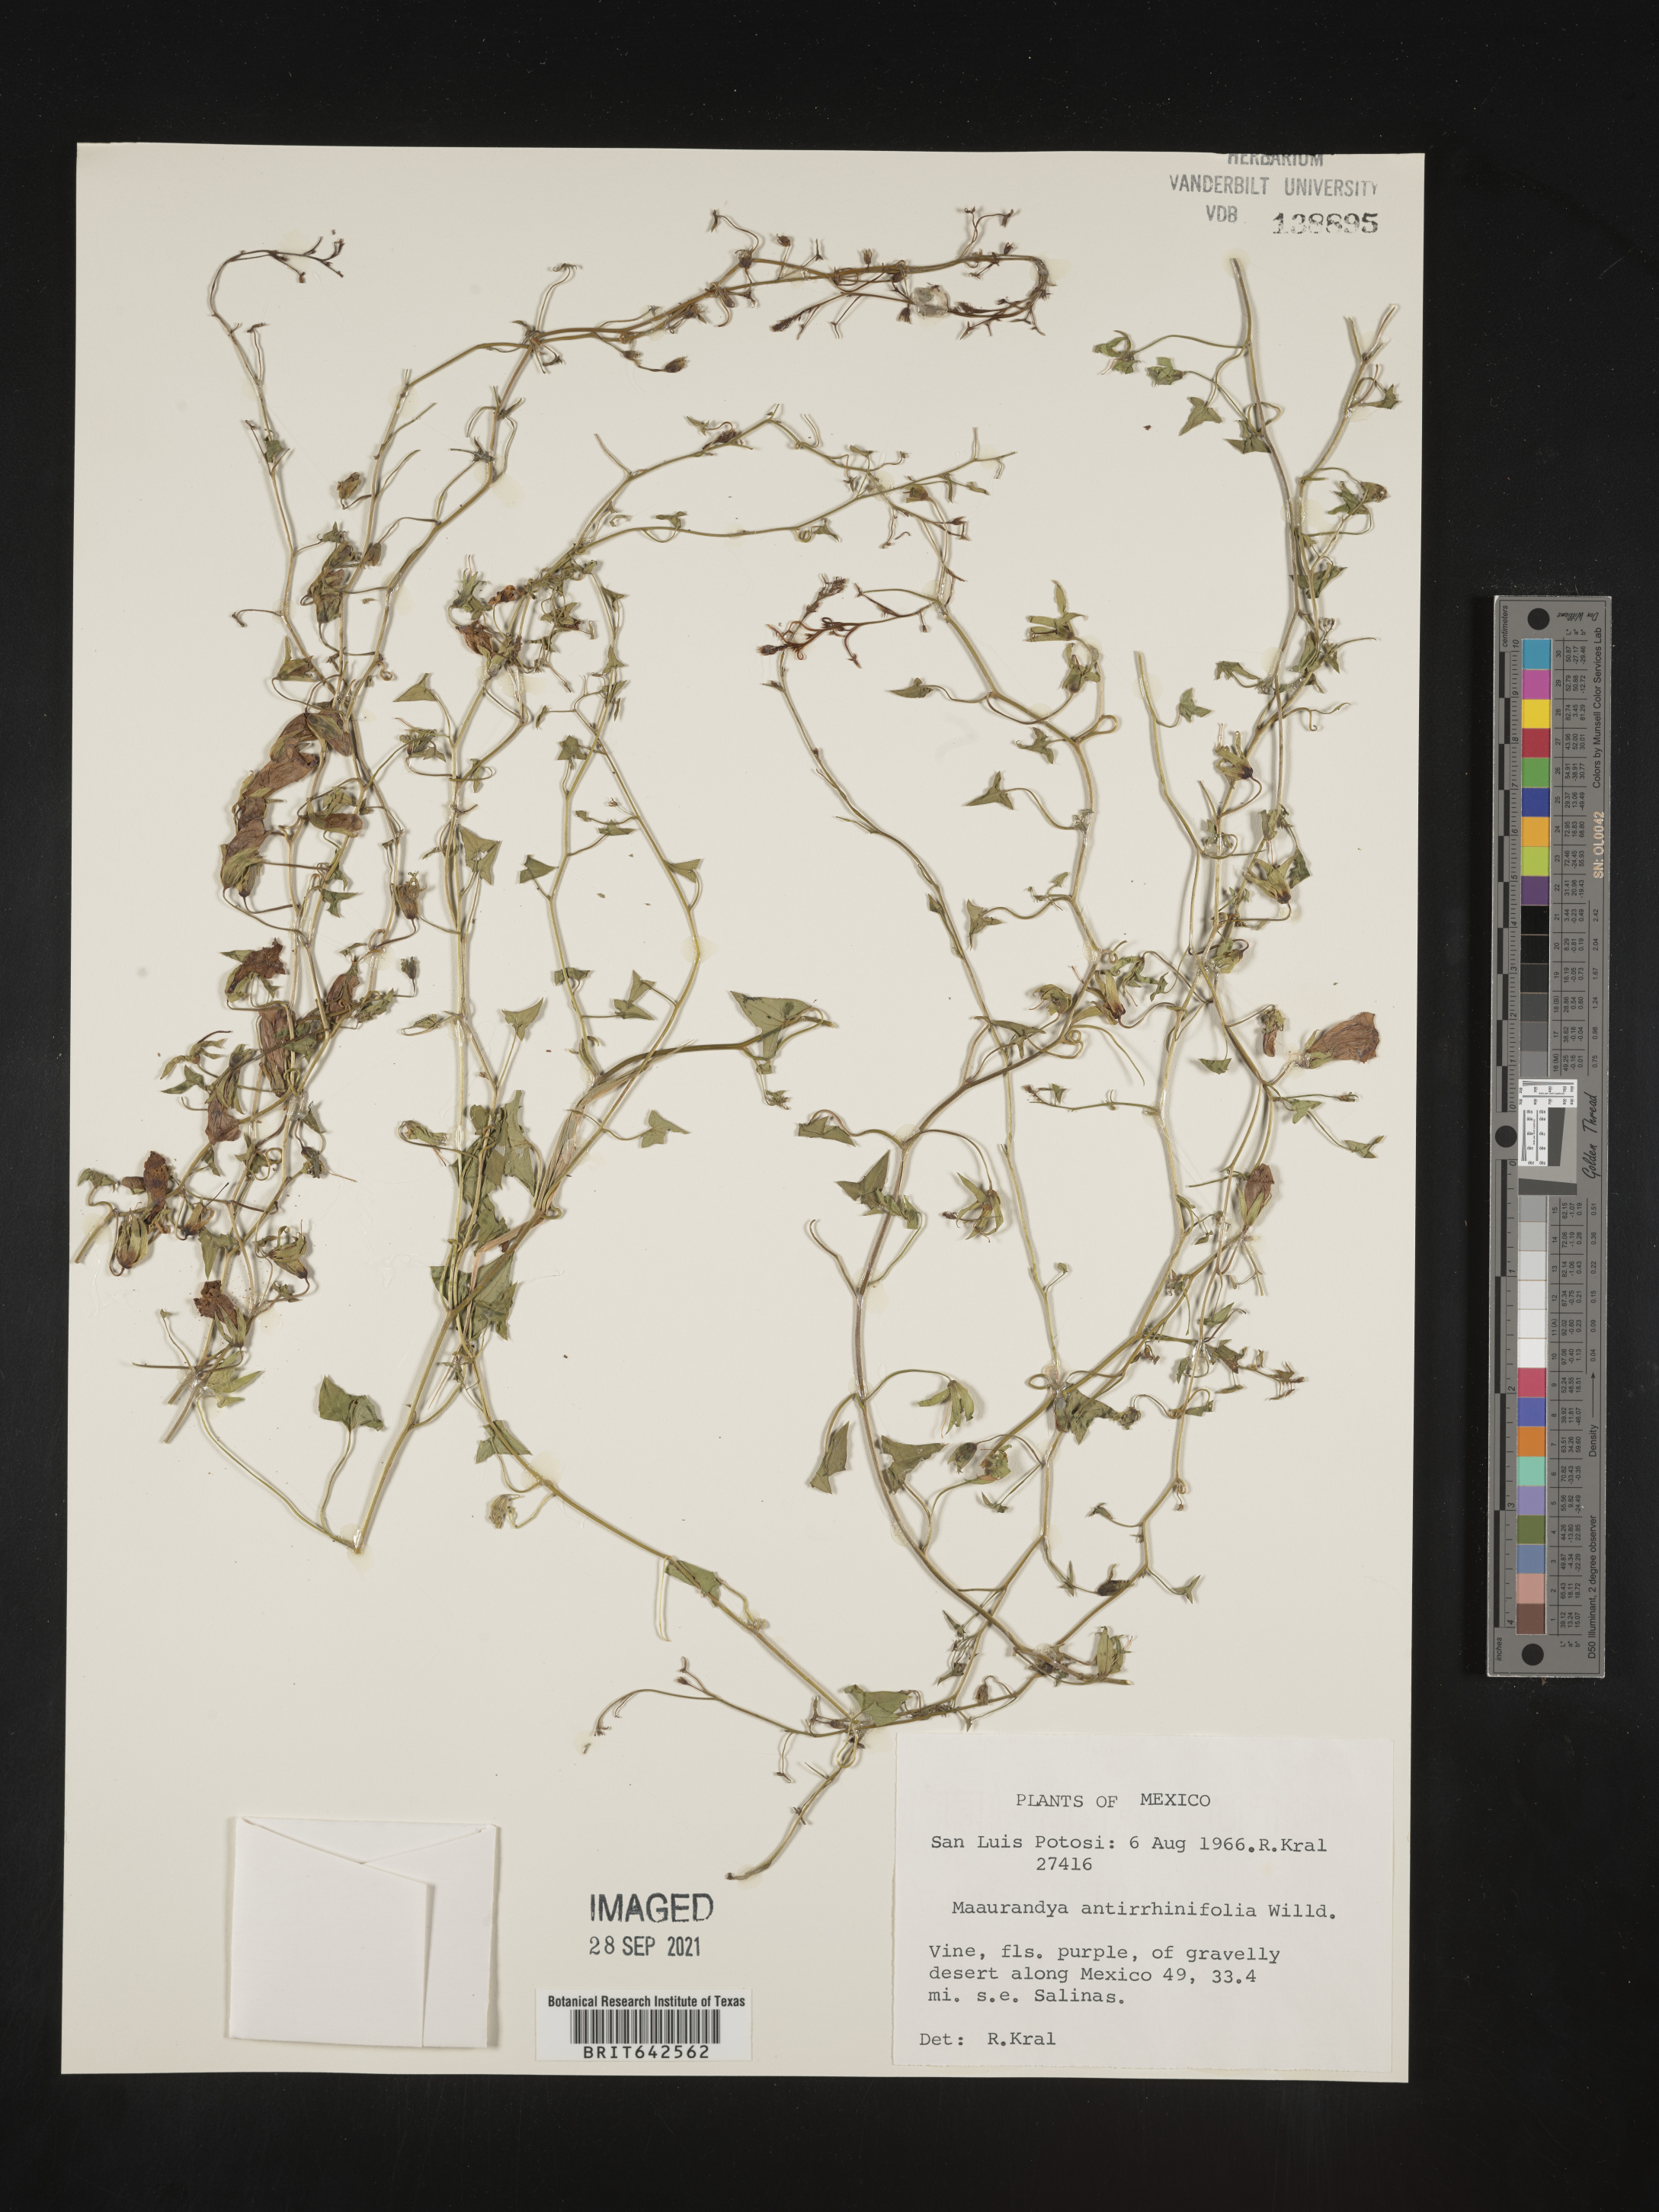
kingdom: Plantae
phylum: Tracheophyta
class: Magnoliopsida
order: Lamiales
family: Plantaginaceae
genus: Maurandya
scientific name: Maurandya
